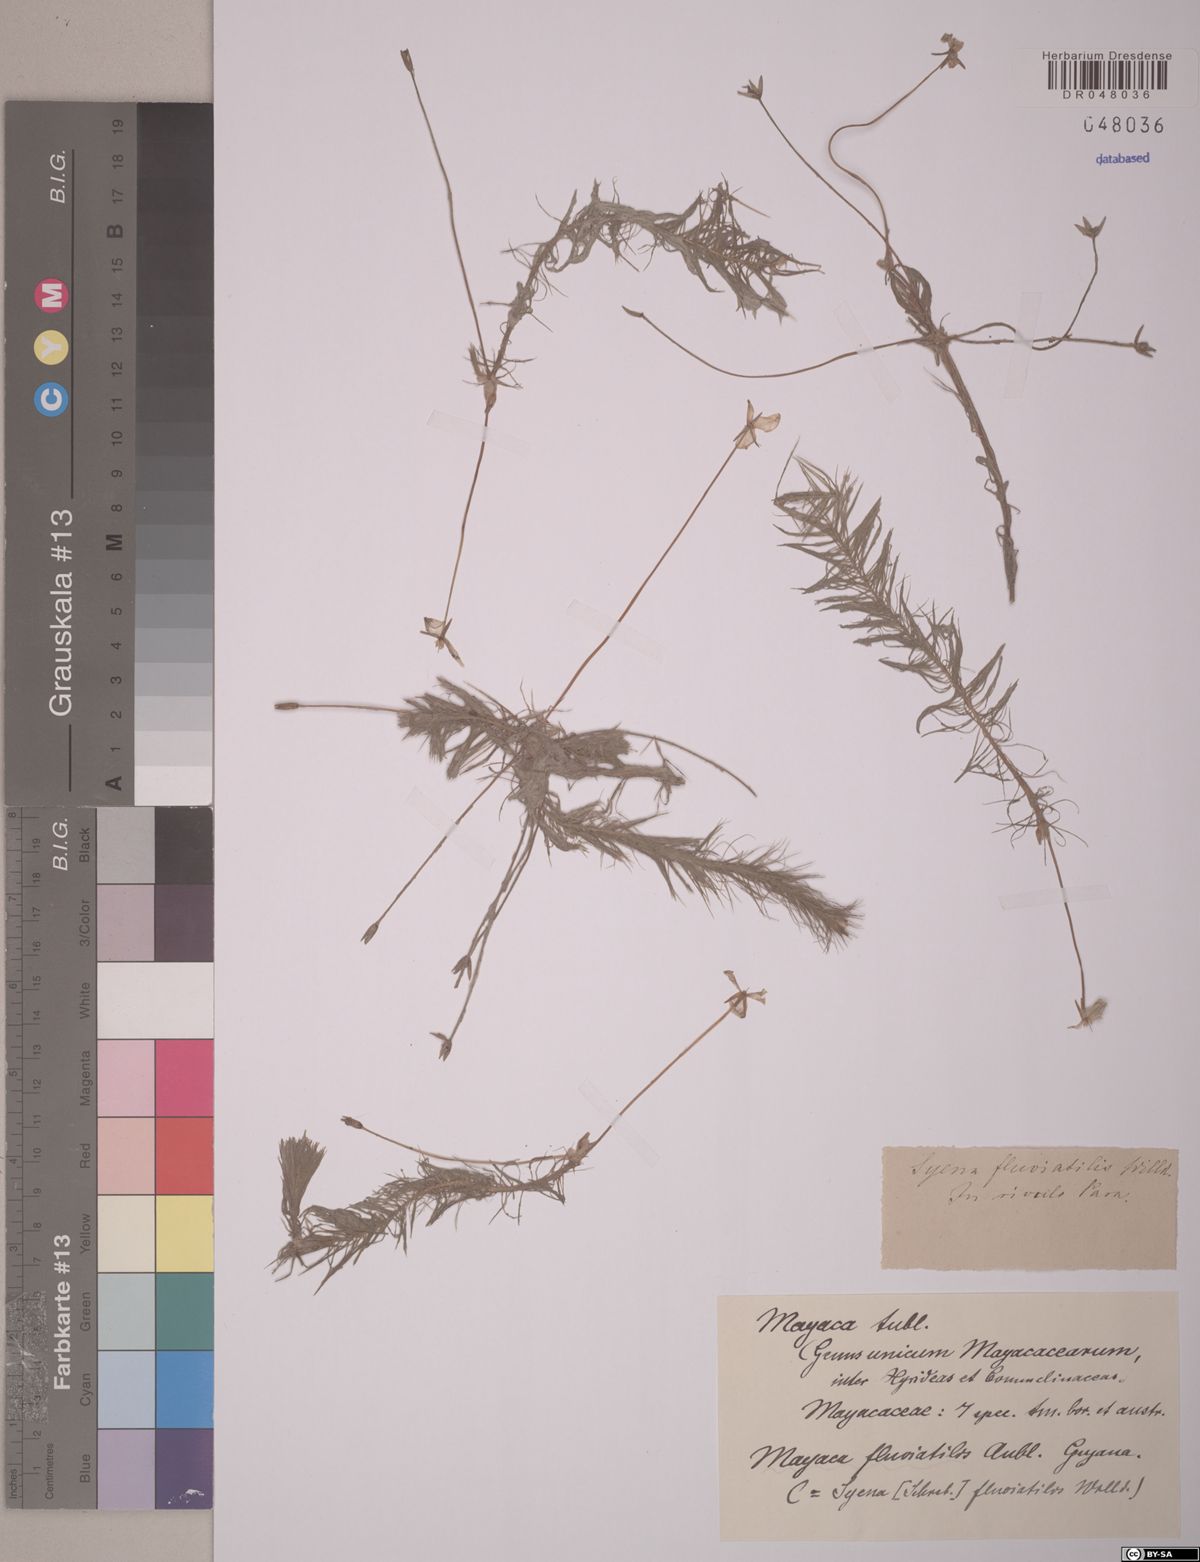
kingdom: Plantae
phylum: Tracheophyta
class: Liliopsida
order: Poales
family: Mayacaceae
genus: Mayaca
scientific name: Mayaca fluviatilis
